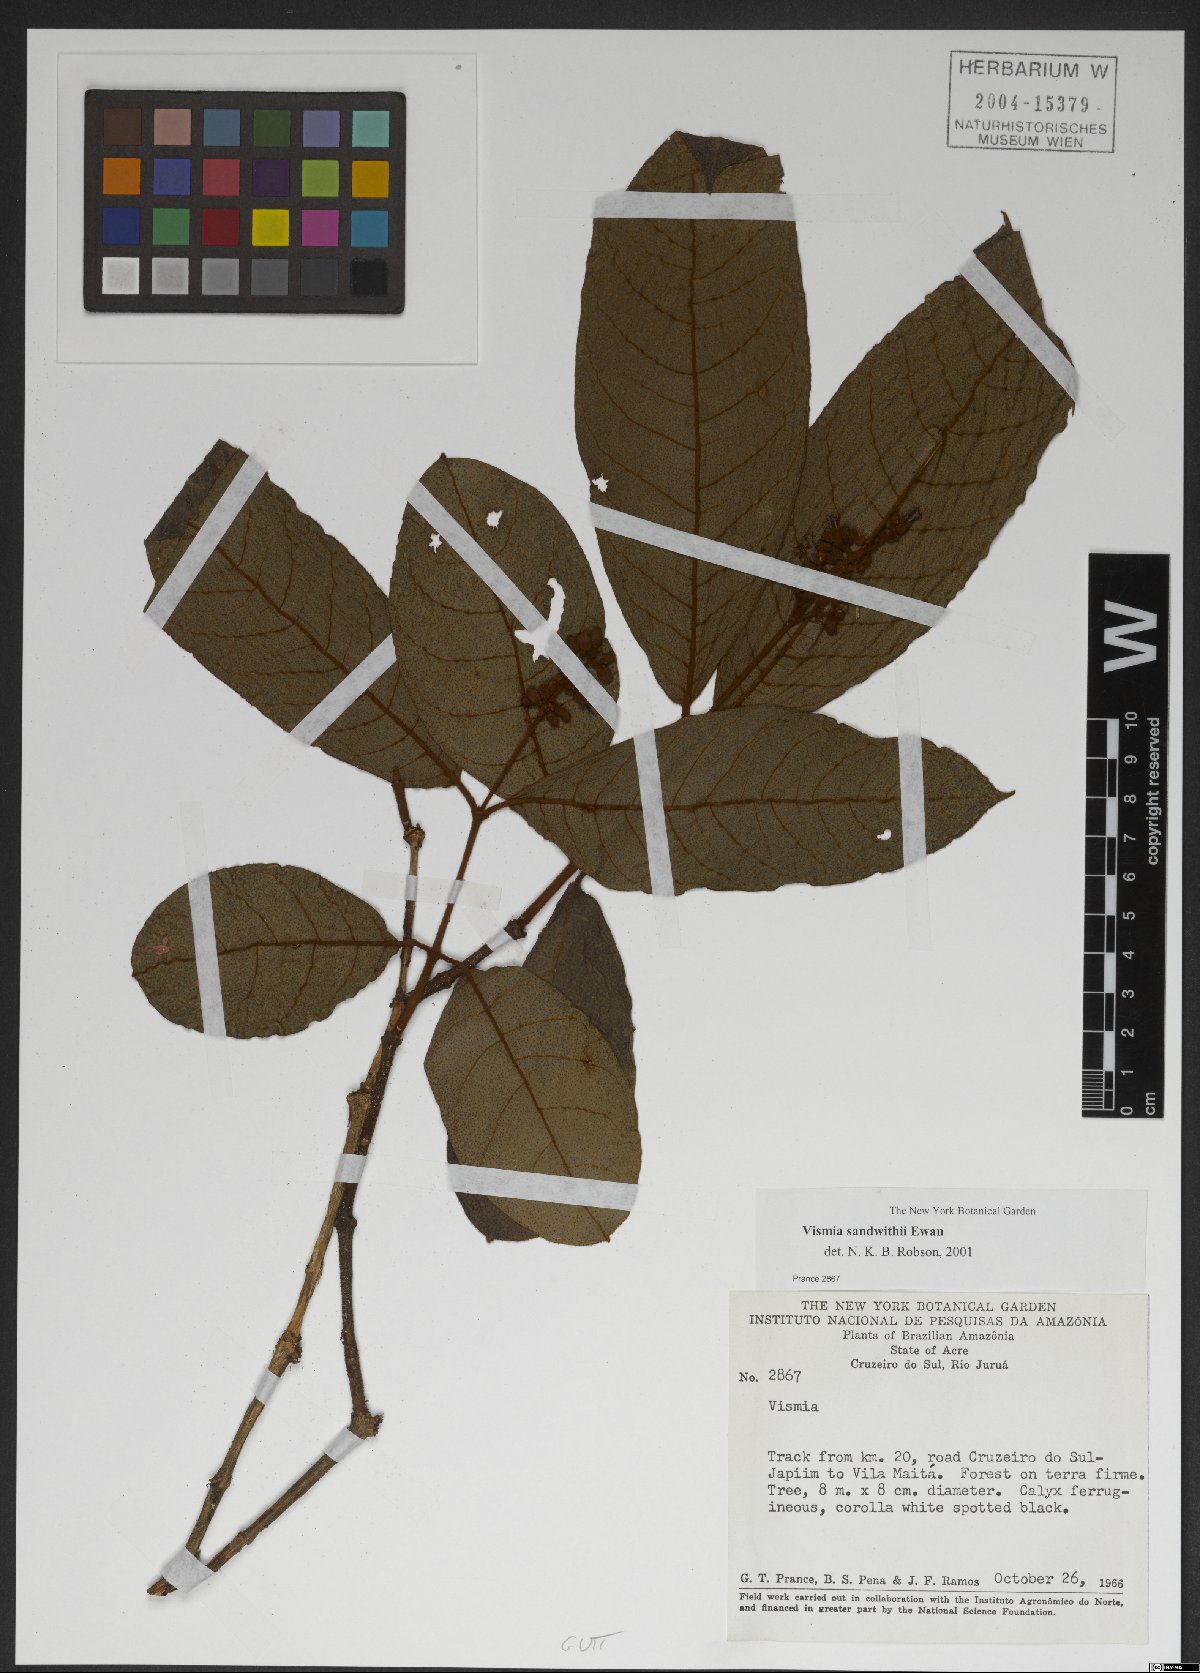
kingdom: Plantae
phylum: Tracheophyta
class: Magnoliopsida
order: Malpighiales
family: Hypericaceae
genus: Vismia
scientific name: Vismia sandwithii
